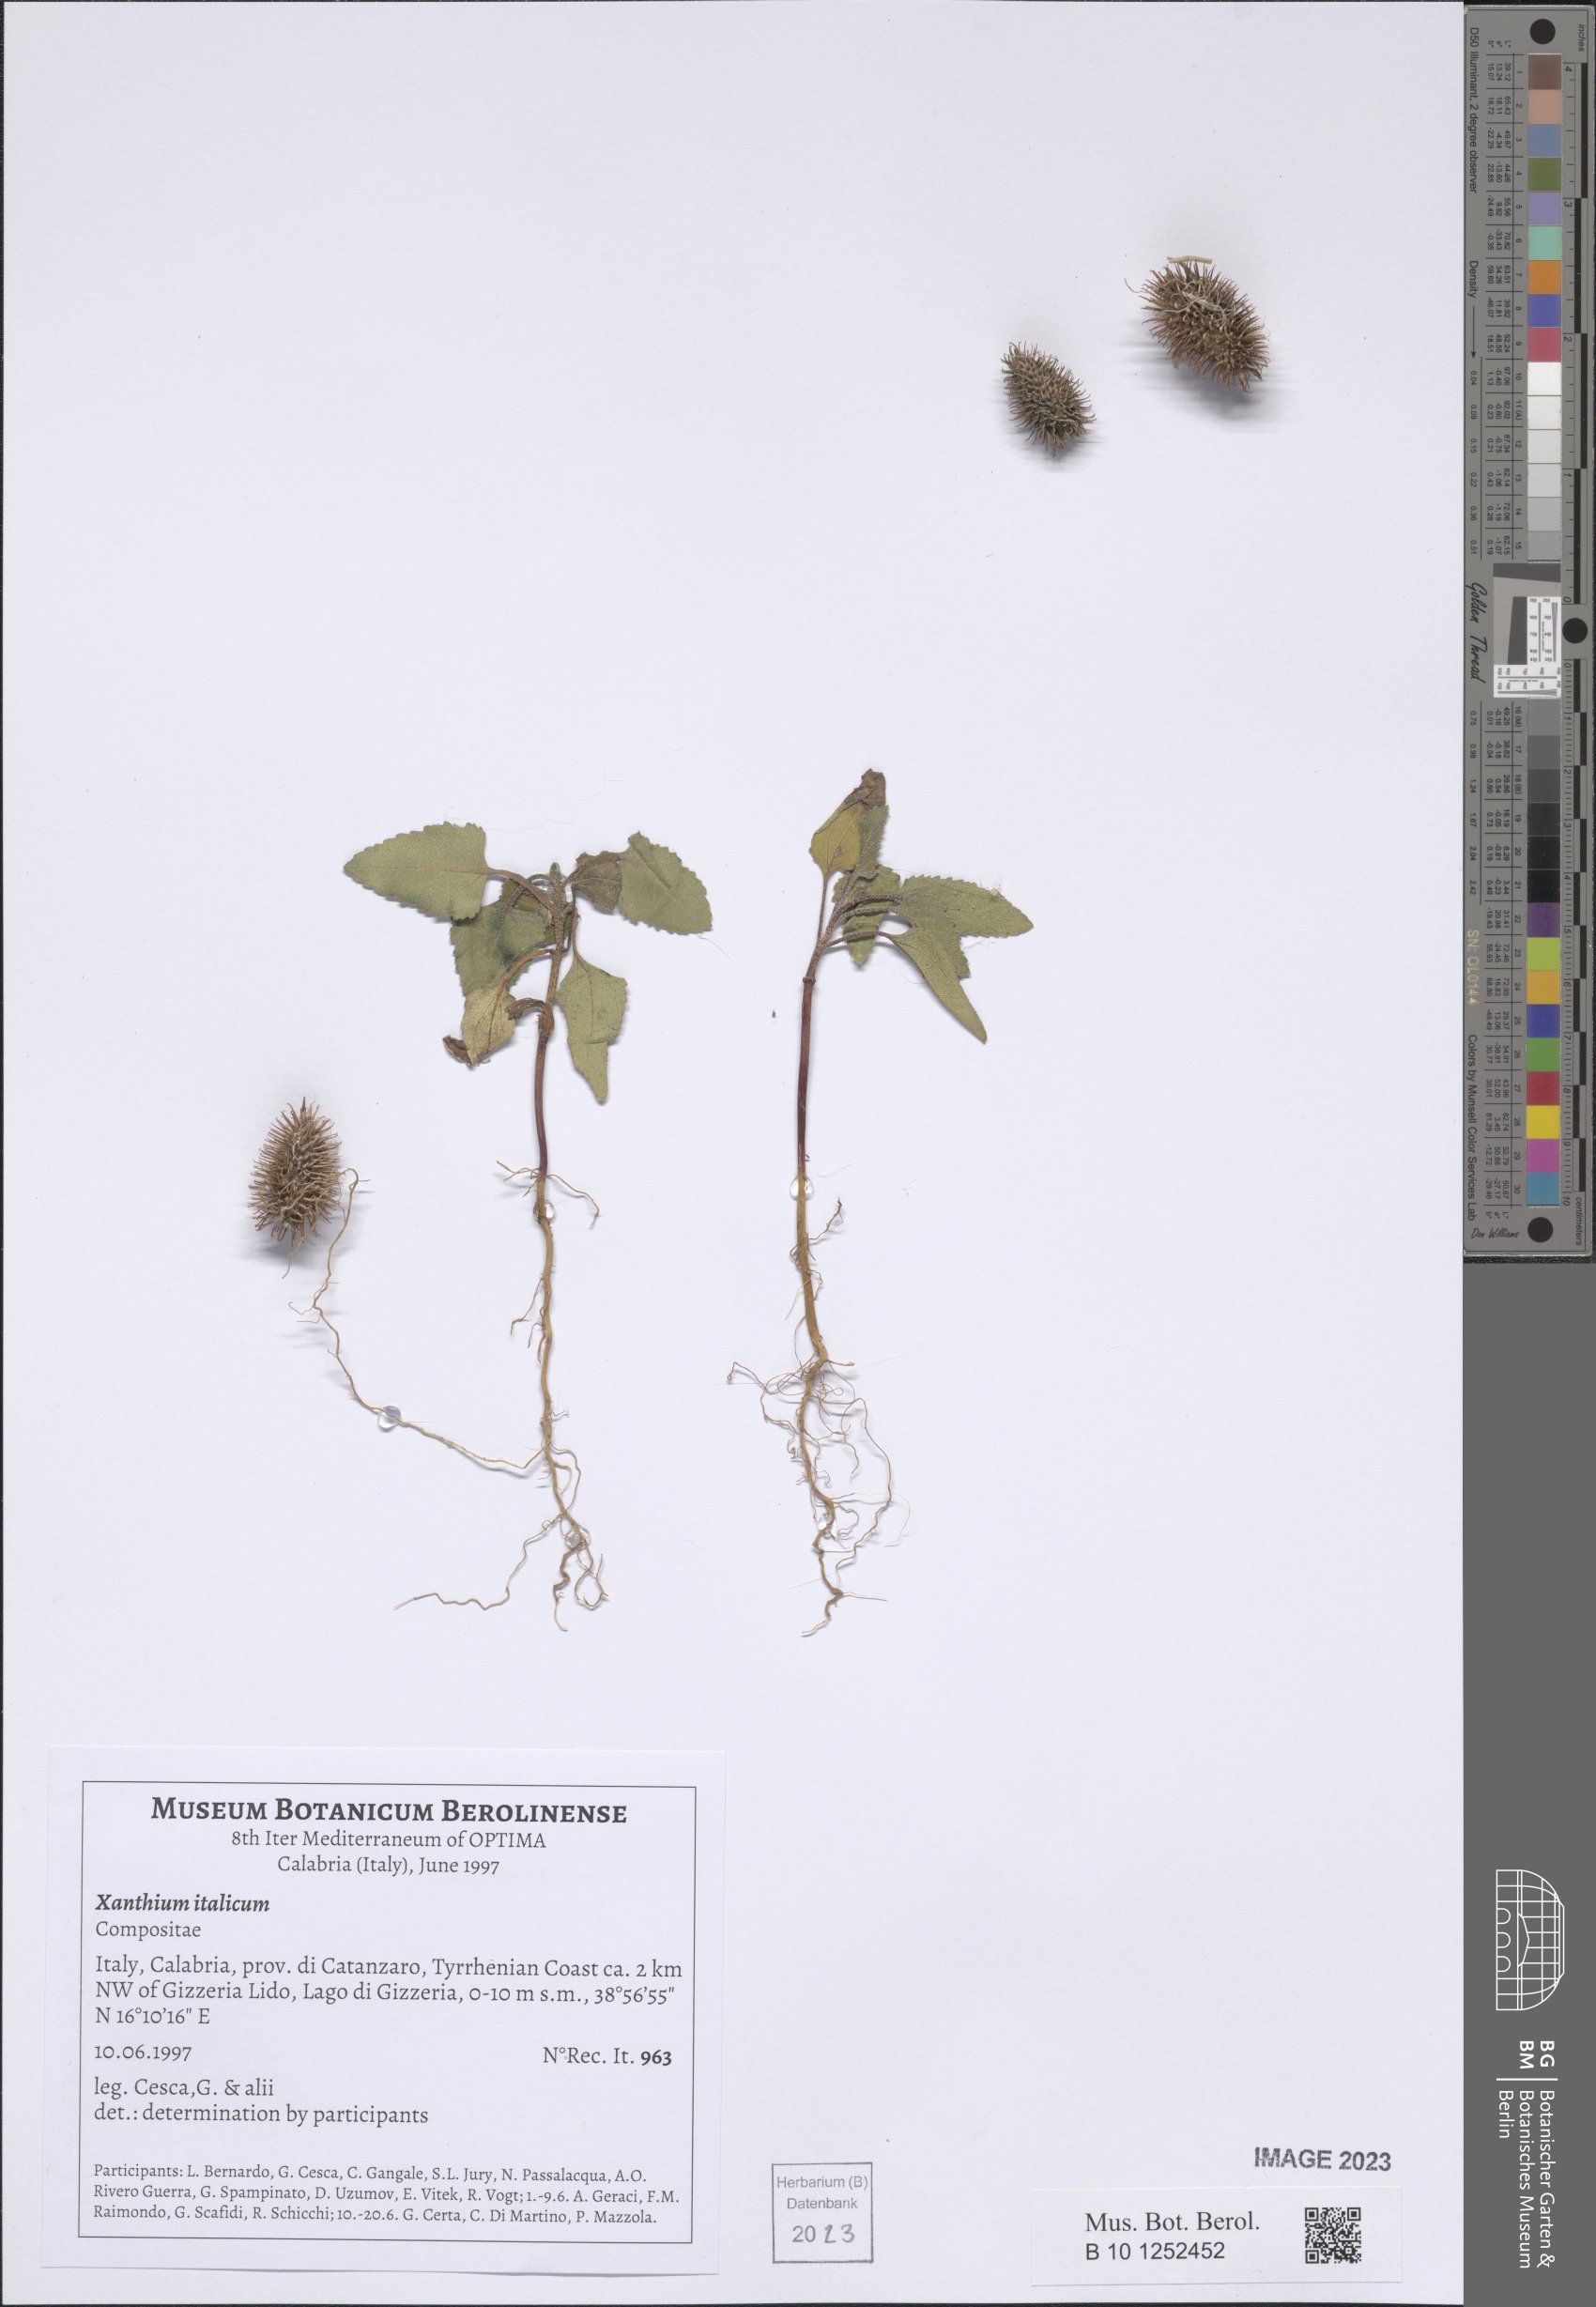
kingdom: Plantae
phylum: Tracheophyta
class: Magnoliopsida
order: Asterales
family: Asteraceae
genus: Xanthium
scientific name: Xanthium orientale
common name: Californian burr
